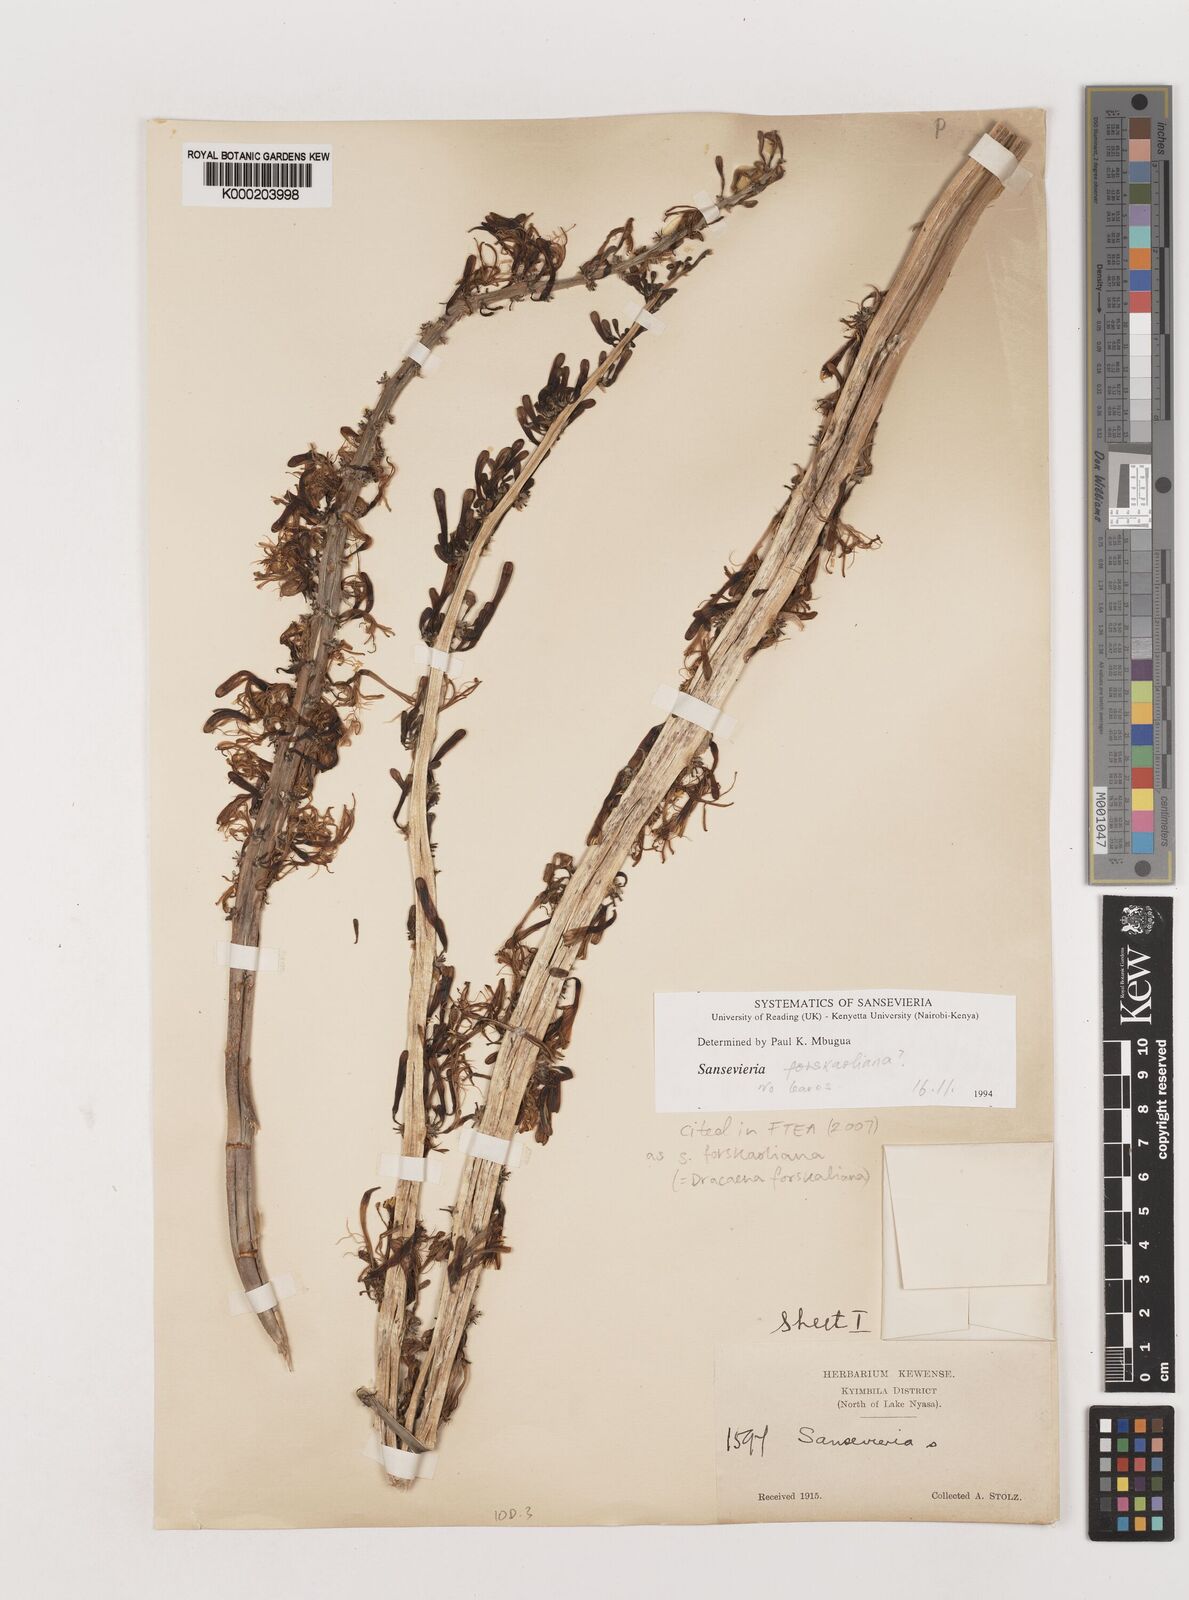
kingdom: Plantae
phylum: Tracheophyta
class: Liliopsida
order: Asparagales
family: Asparagaceae
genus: Dracaena
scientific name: Dracaena forskaliana
